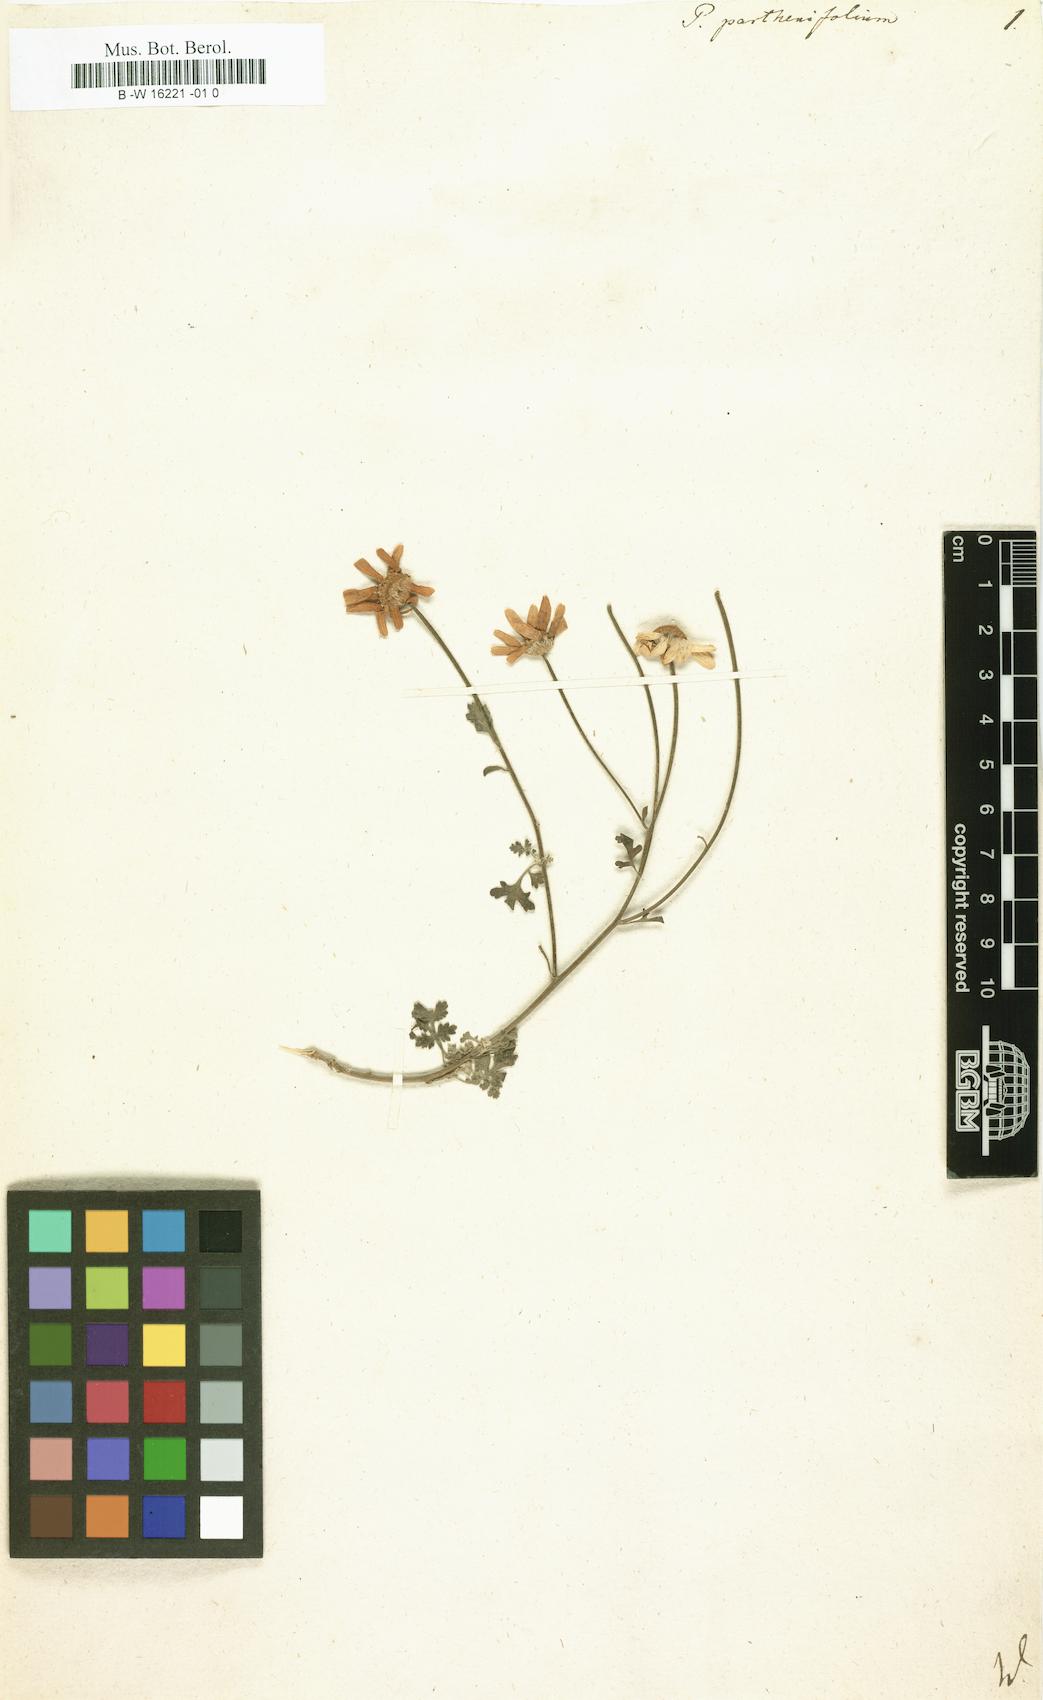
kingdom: Plantae
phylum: Tracheophyta
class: Magnoliopsida
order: Asterales
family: Asteraceae
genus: Tanacetum
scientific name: Tanacetum partheniifolium
